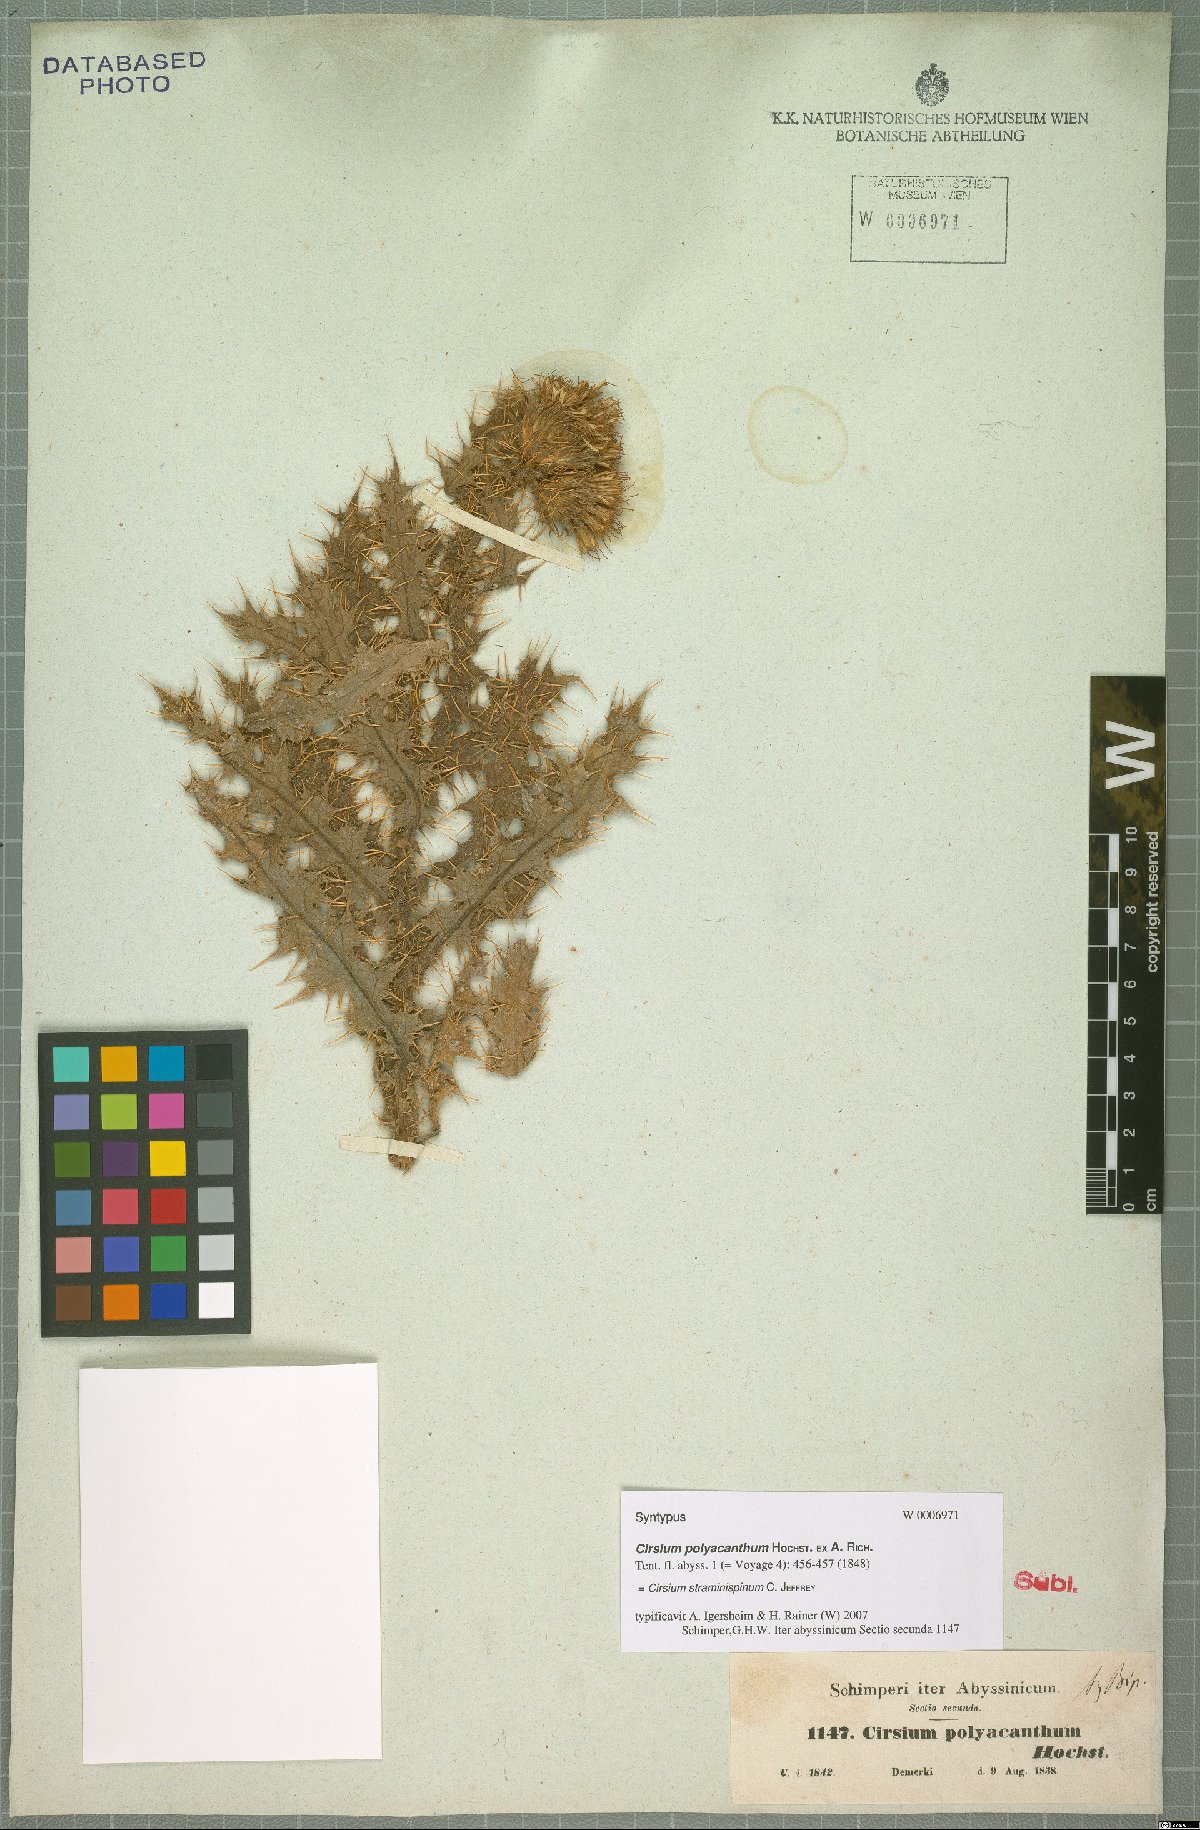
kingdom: Plantae
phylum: Tracheophyta
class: Magnoliopsida
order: Asterales
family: Asteraceae
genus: Cirsium
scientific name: Cirsium straminispinum
